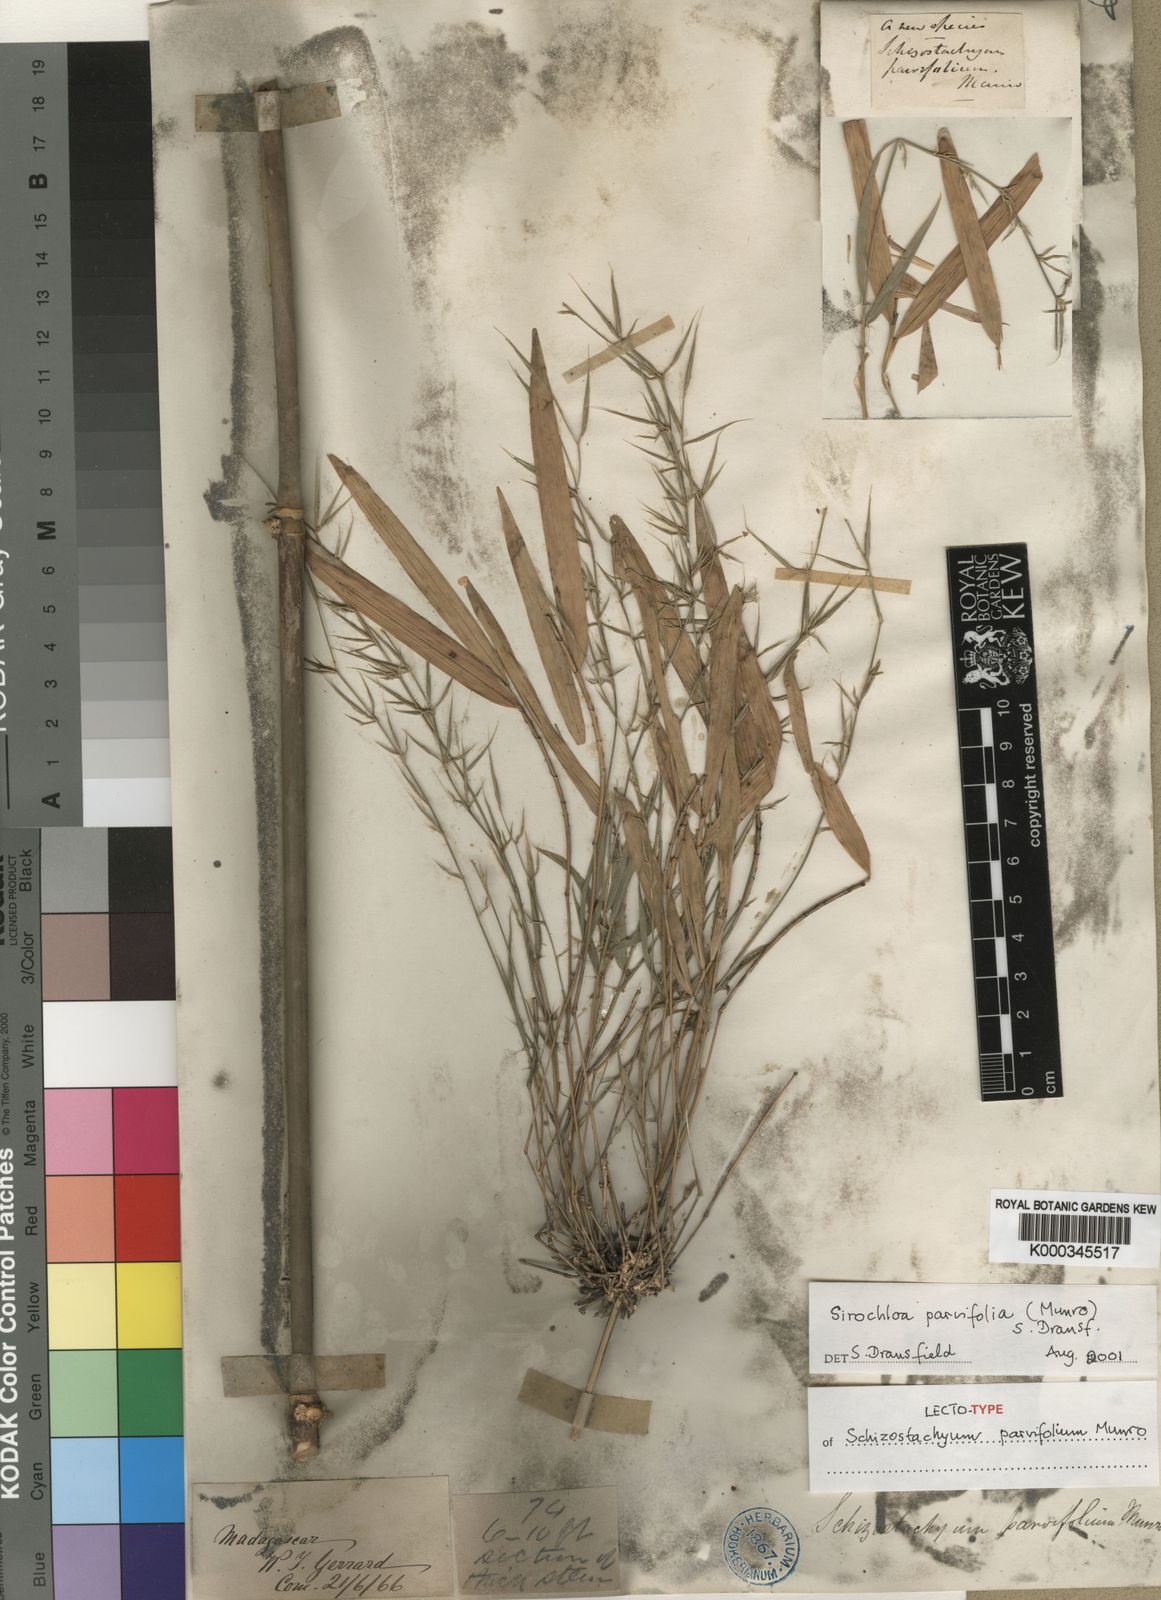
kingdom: Plantae
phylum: Tracheophyta
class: Liliopsida
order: Poales
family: Poaceae
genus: Sirochloa
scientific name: Sirochloa
